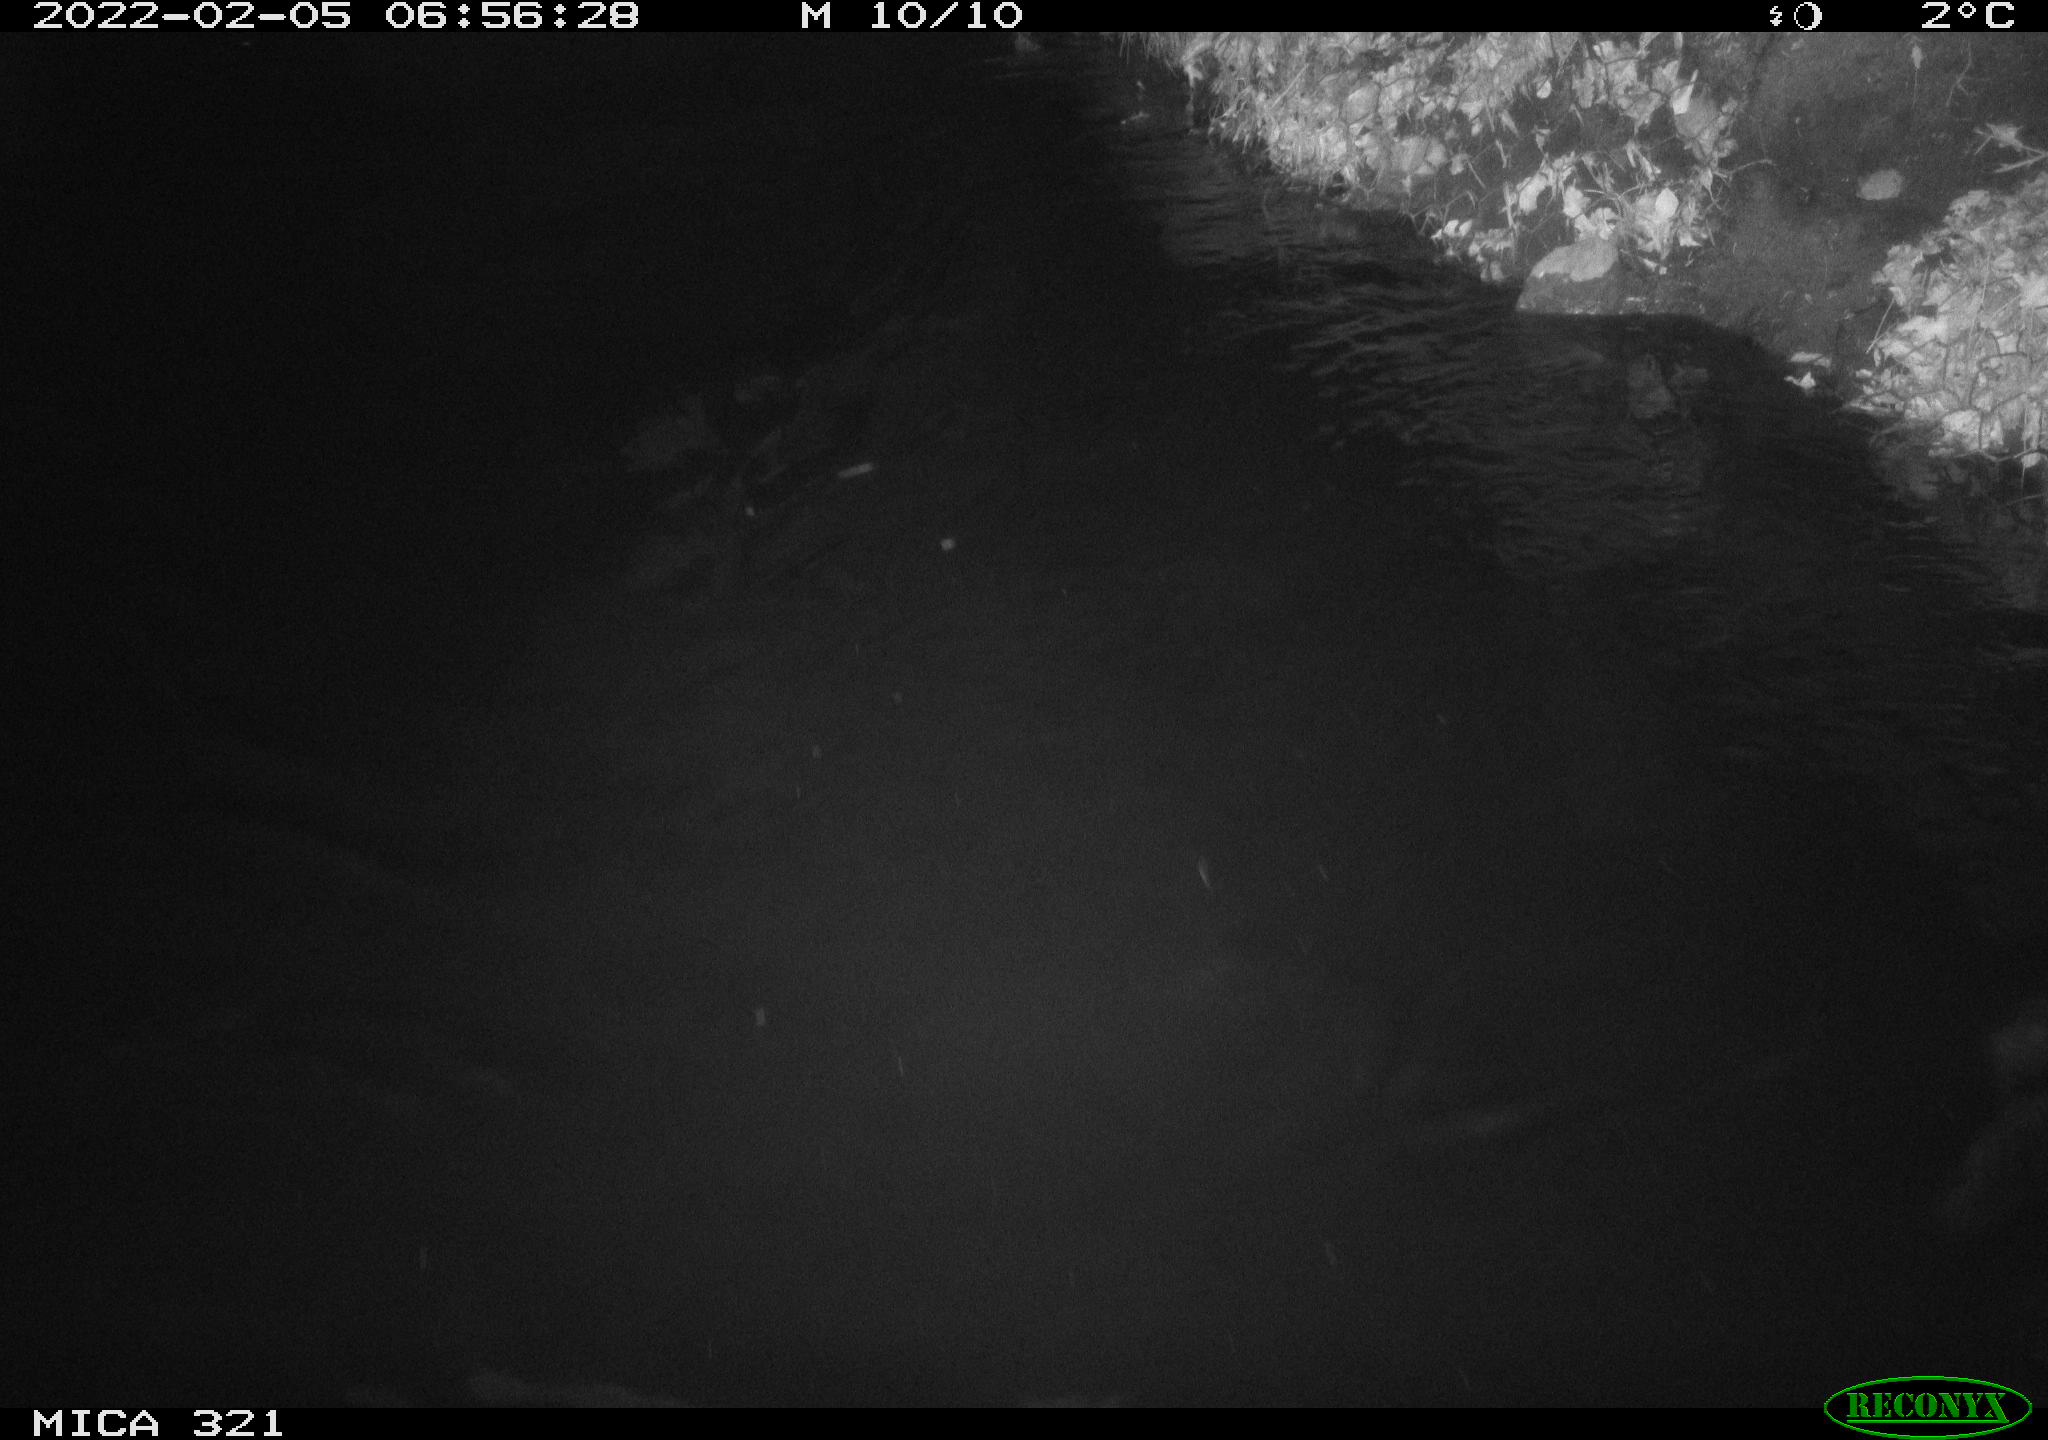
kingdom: Animalia
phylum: Chordata
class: Aves
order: Anseriformes
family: Anatidae
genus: Anas
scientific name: Anas platyrhynchos
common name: Mallard
